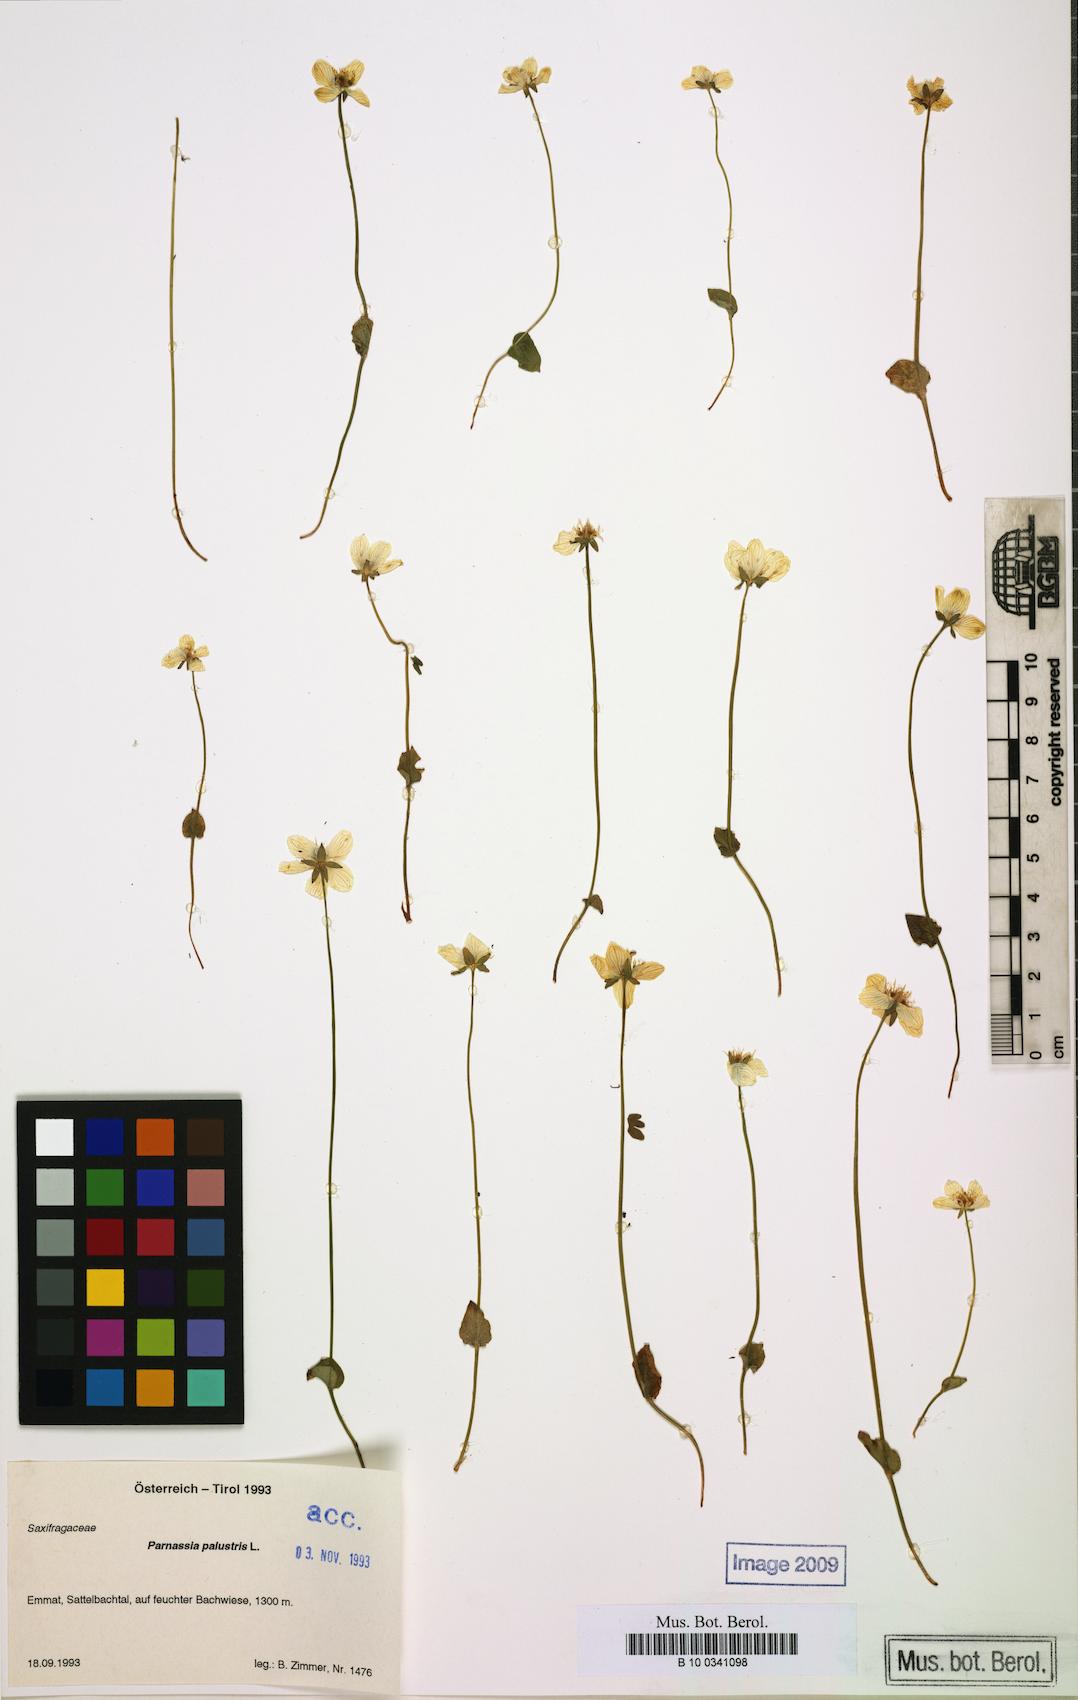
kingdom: Plantae
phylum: Tracheophyta
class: Magnoliopsida
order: Celastrales
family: Parnassiaceae
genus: Parnassia
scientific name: Parnassia palustris
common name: Grass-of-parnassus
